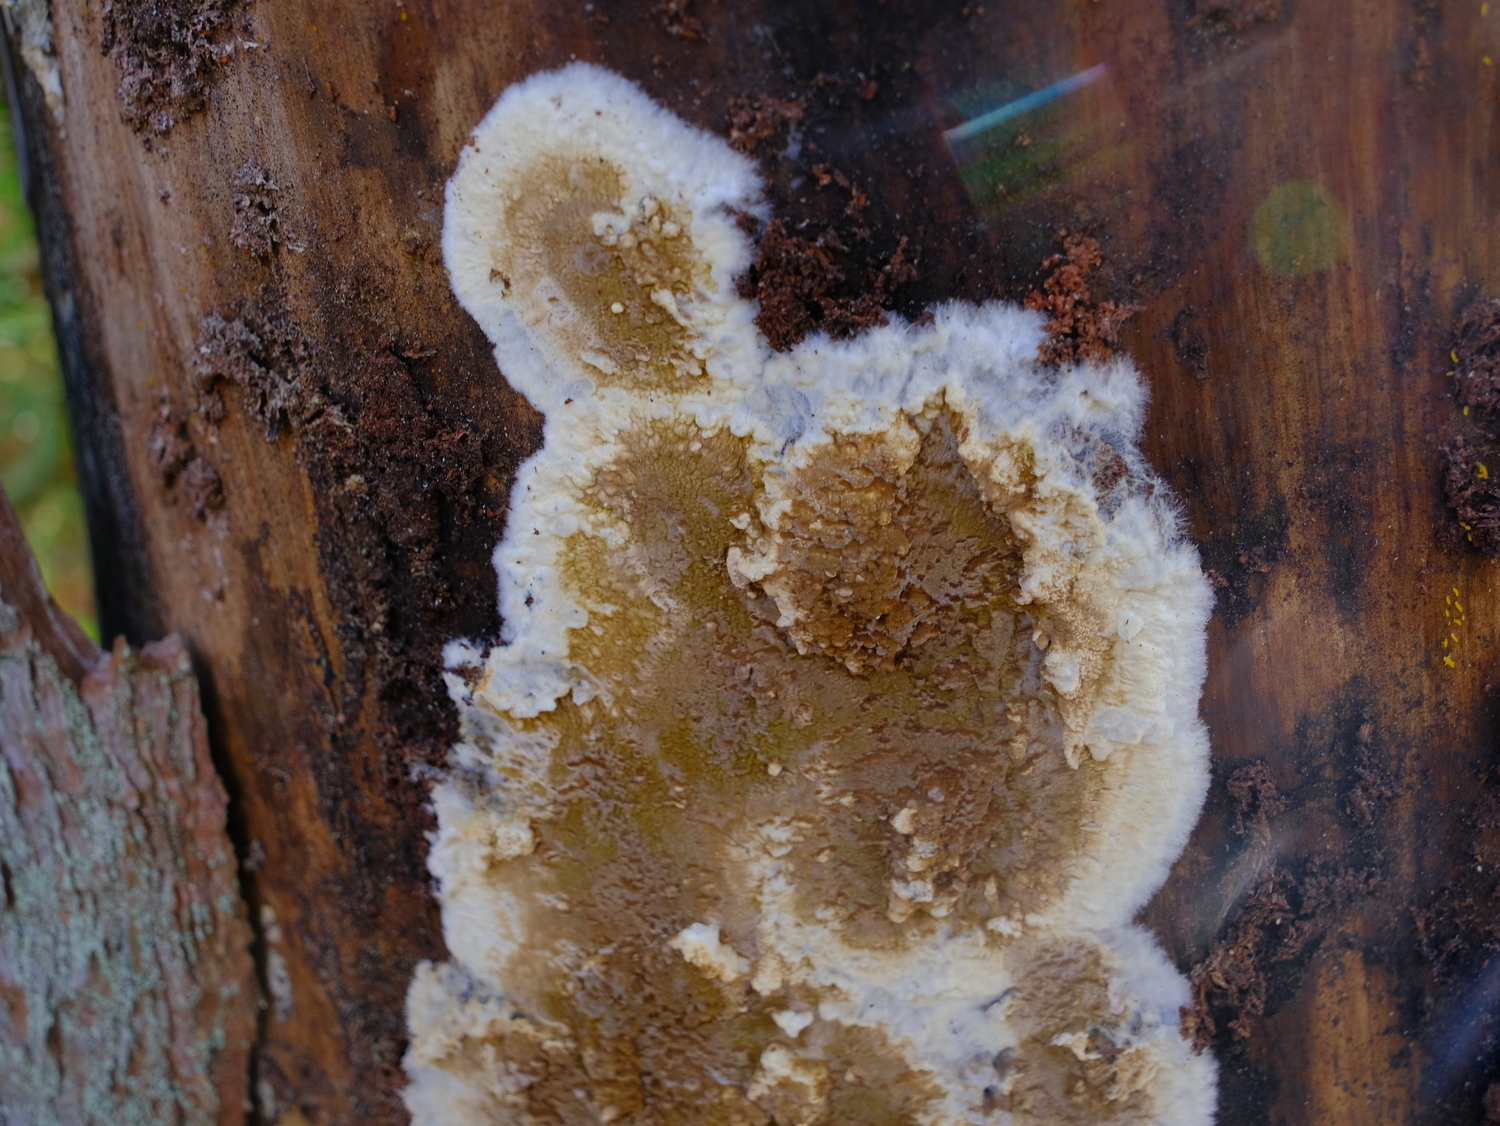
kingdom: Fungi
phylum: Basidiomycota
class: Agaricomycetes
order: Boletales
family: Coniophoraceae
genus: Coniophora
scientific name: Coniophora puteana
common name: gul tømmersvamp
